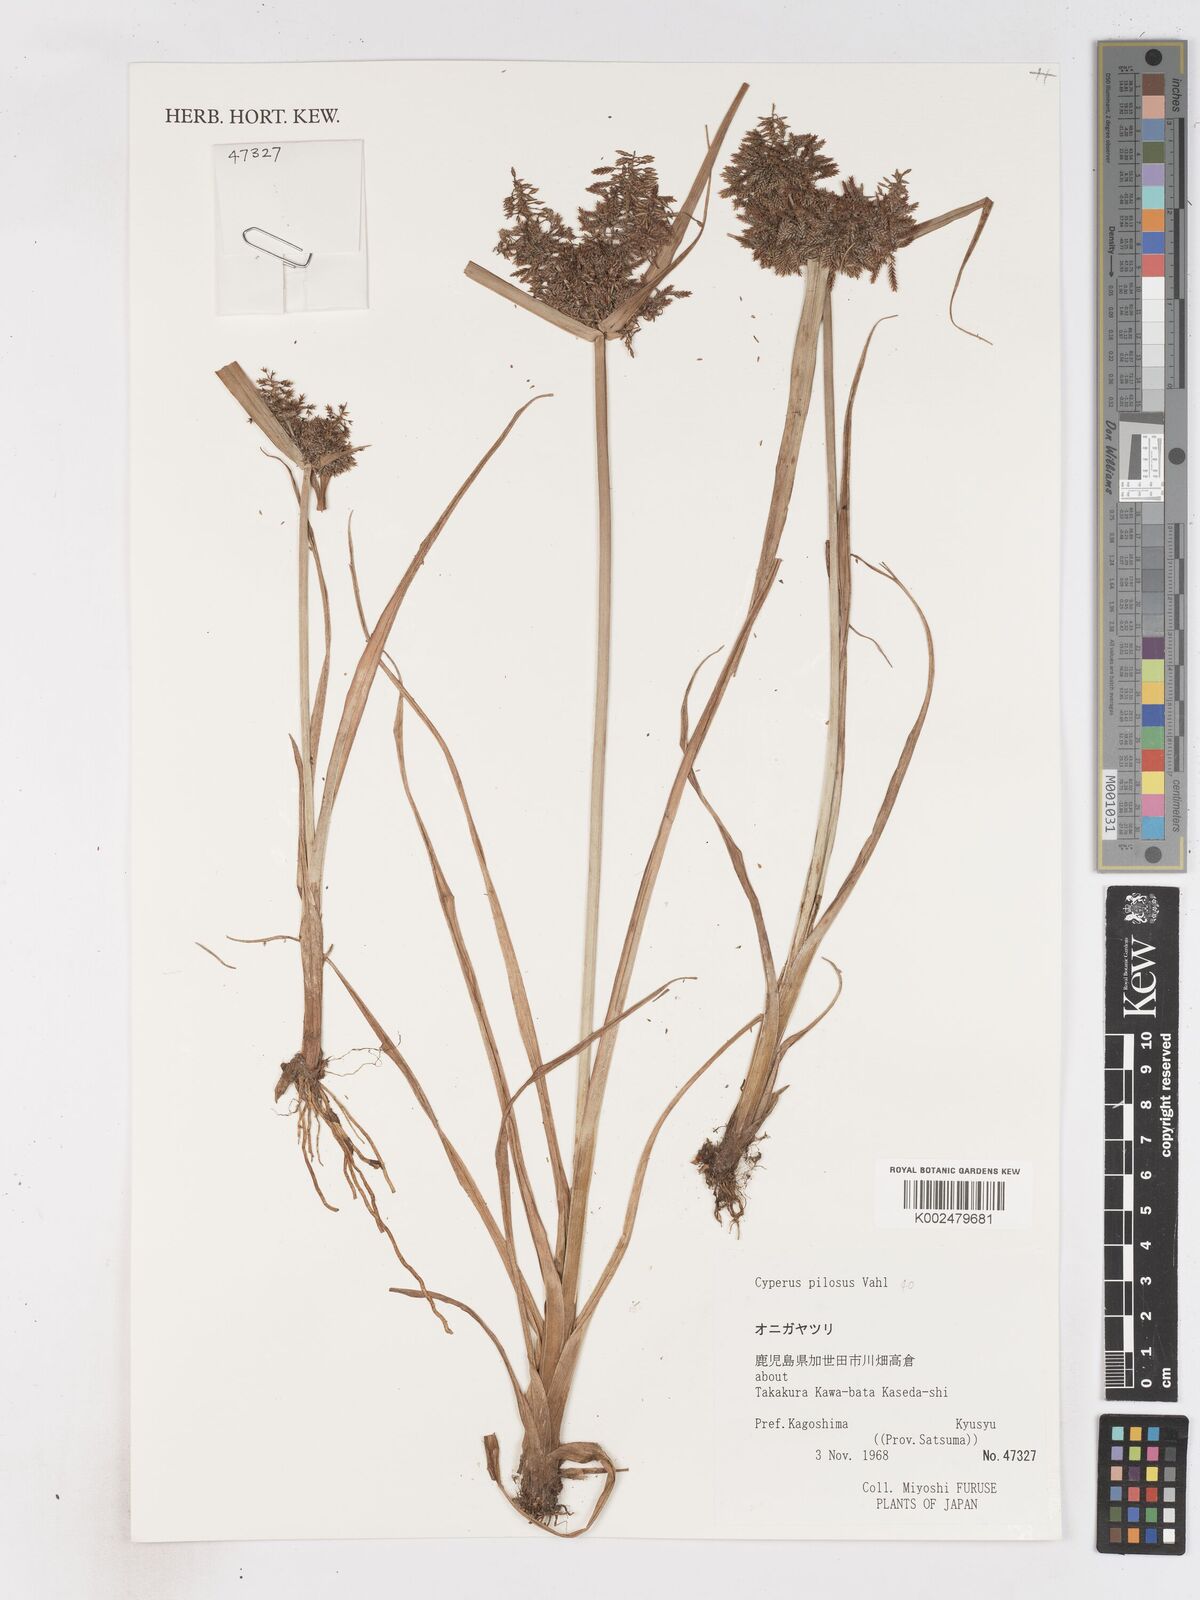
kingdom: Plantae
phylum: Tracheophyta
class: Liliopsida
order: Poales
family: Cyperaceae
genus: Cyperus
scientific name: Cyperus pilosus
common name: Fuzzy flatsedge
